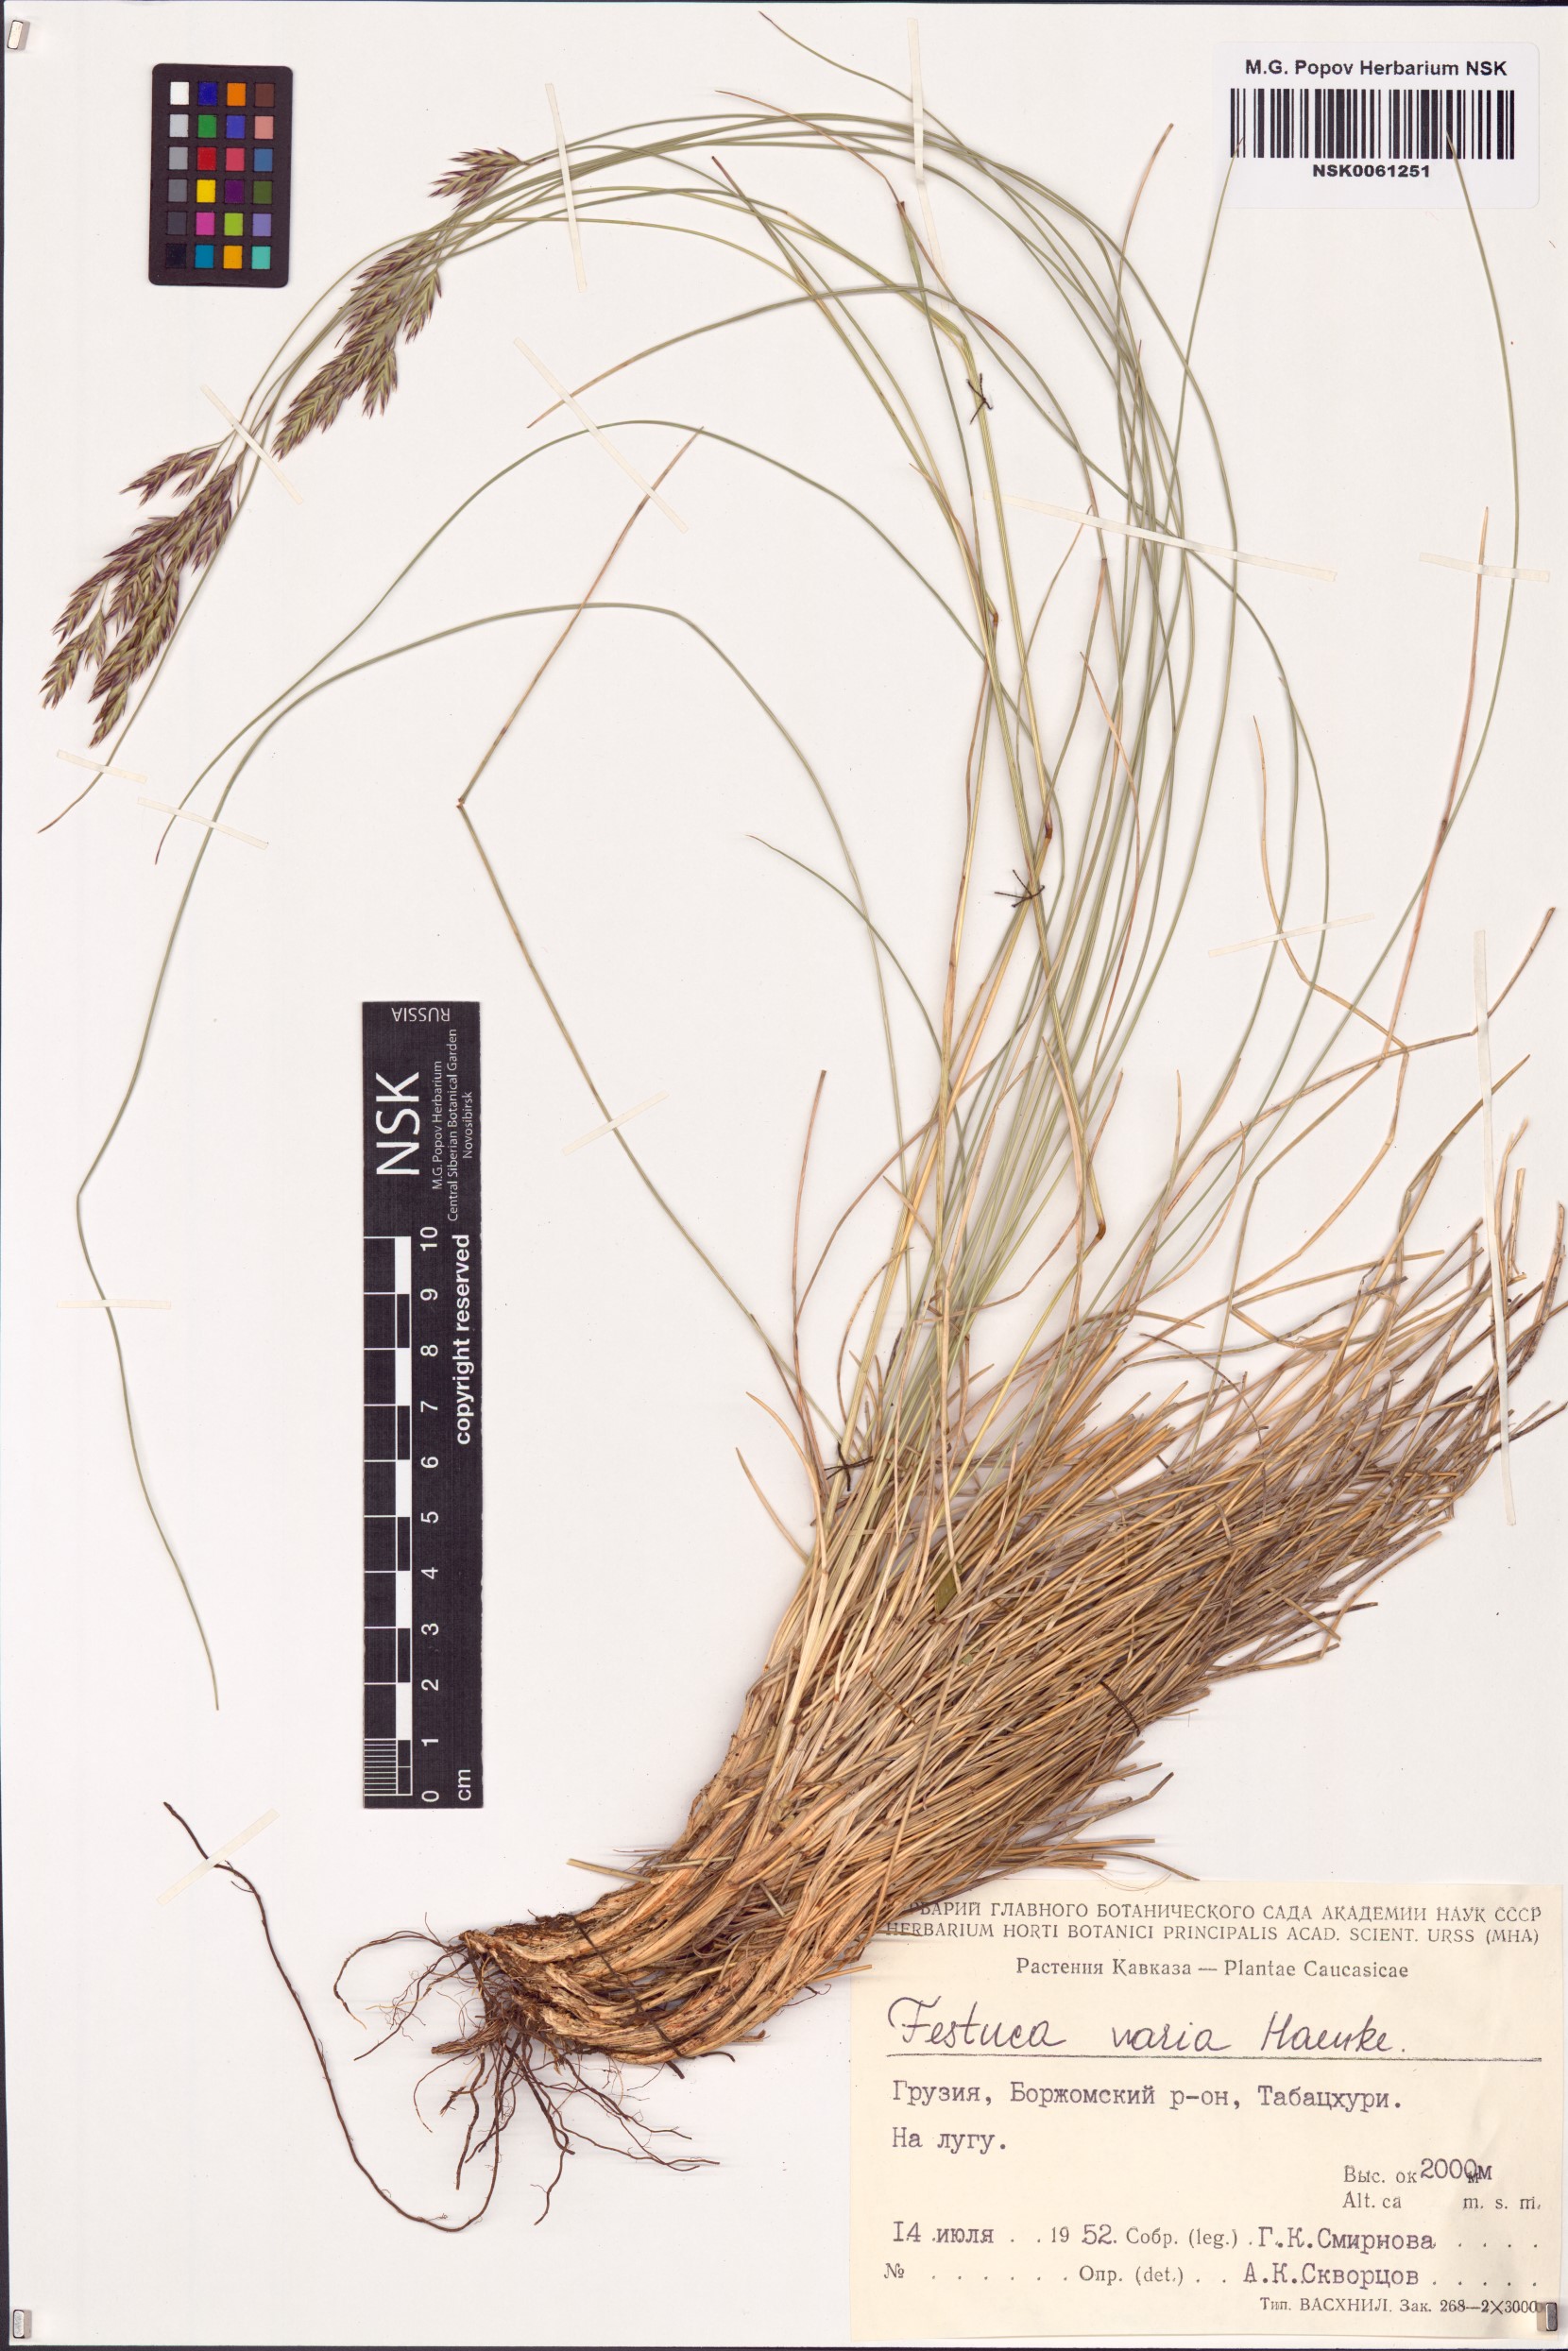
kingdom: Plantae
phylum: Tracheophyta
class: Liliopsida
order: Poales
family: Poaceae
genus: Festuca
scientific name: Festuca varia
